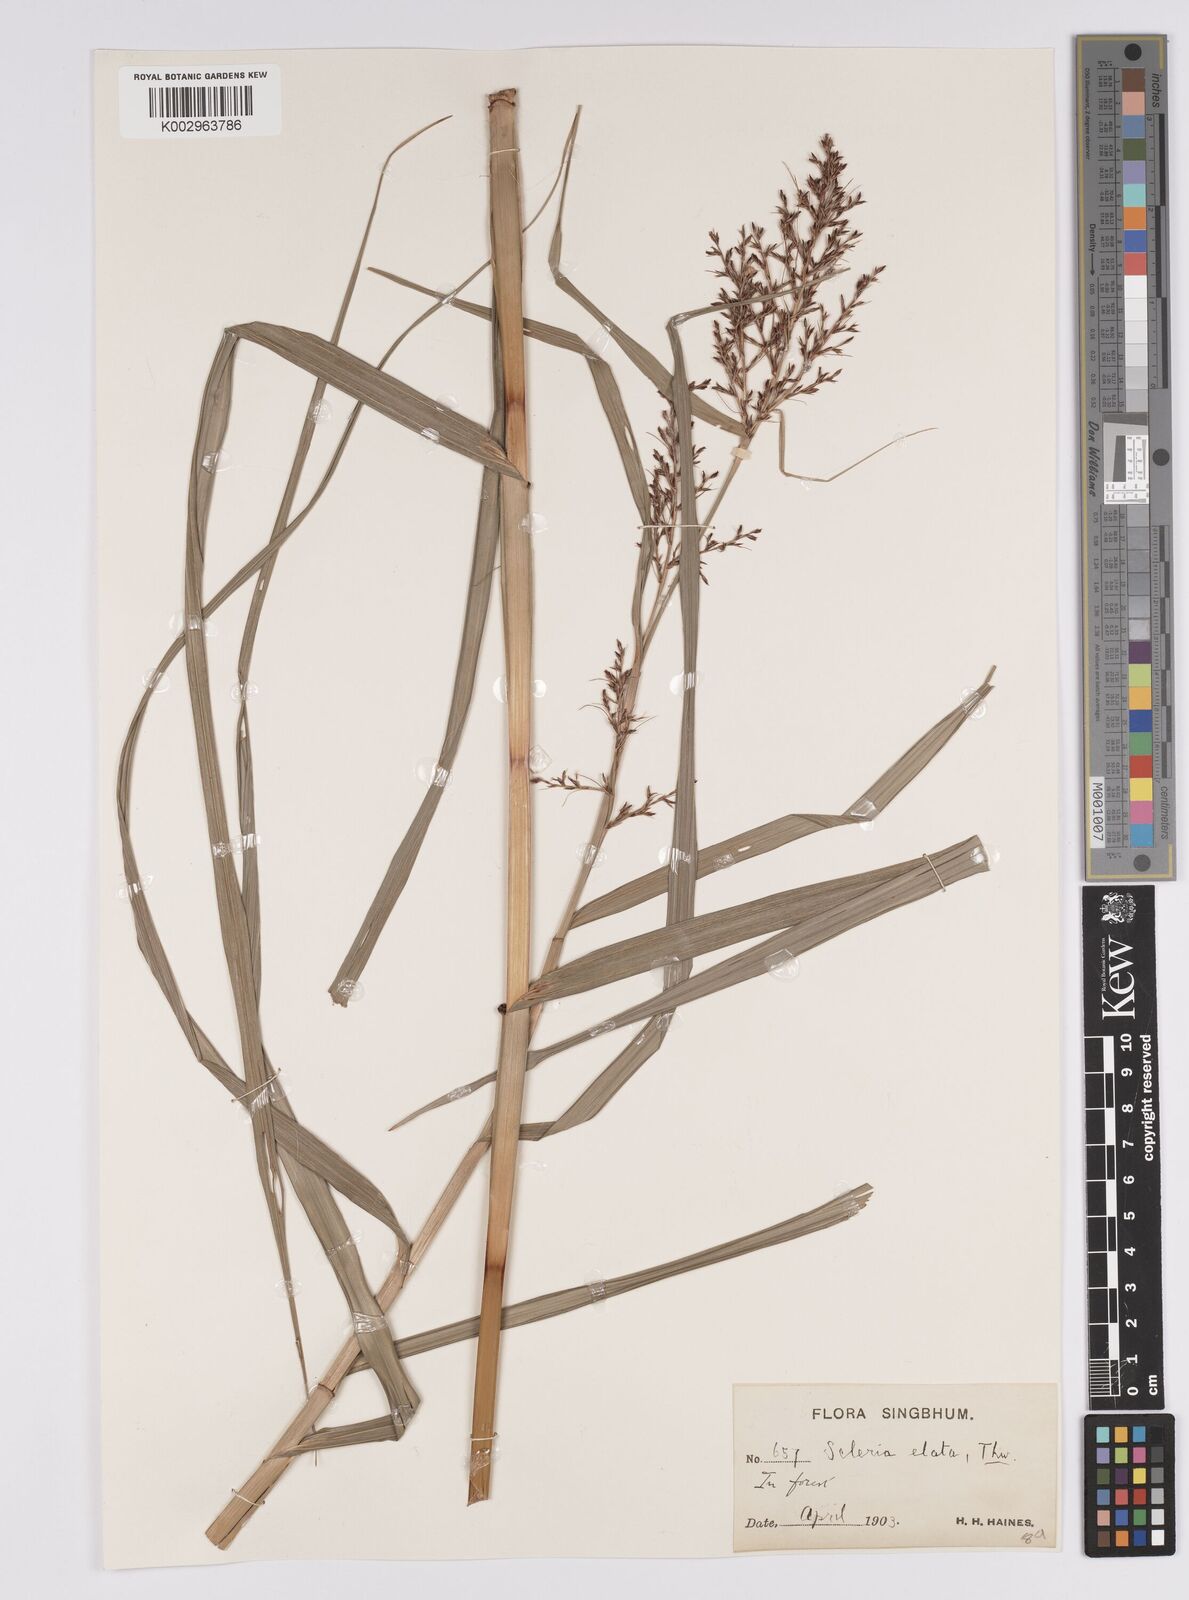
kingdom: Plantae
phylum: Tracheophyta
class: Liliopsida
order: Poales
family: Cyperaceae
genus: Scleria
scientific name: Scleria terrestris
